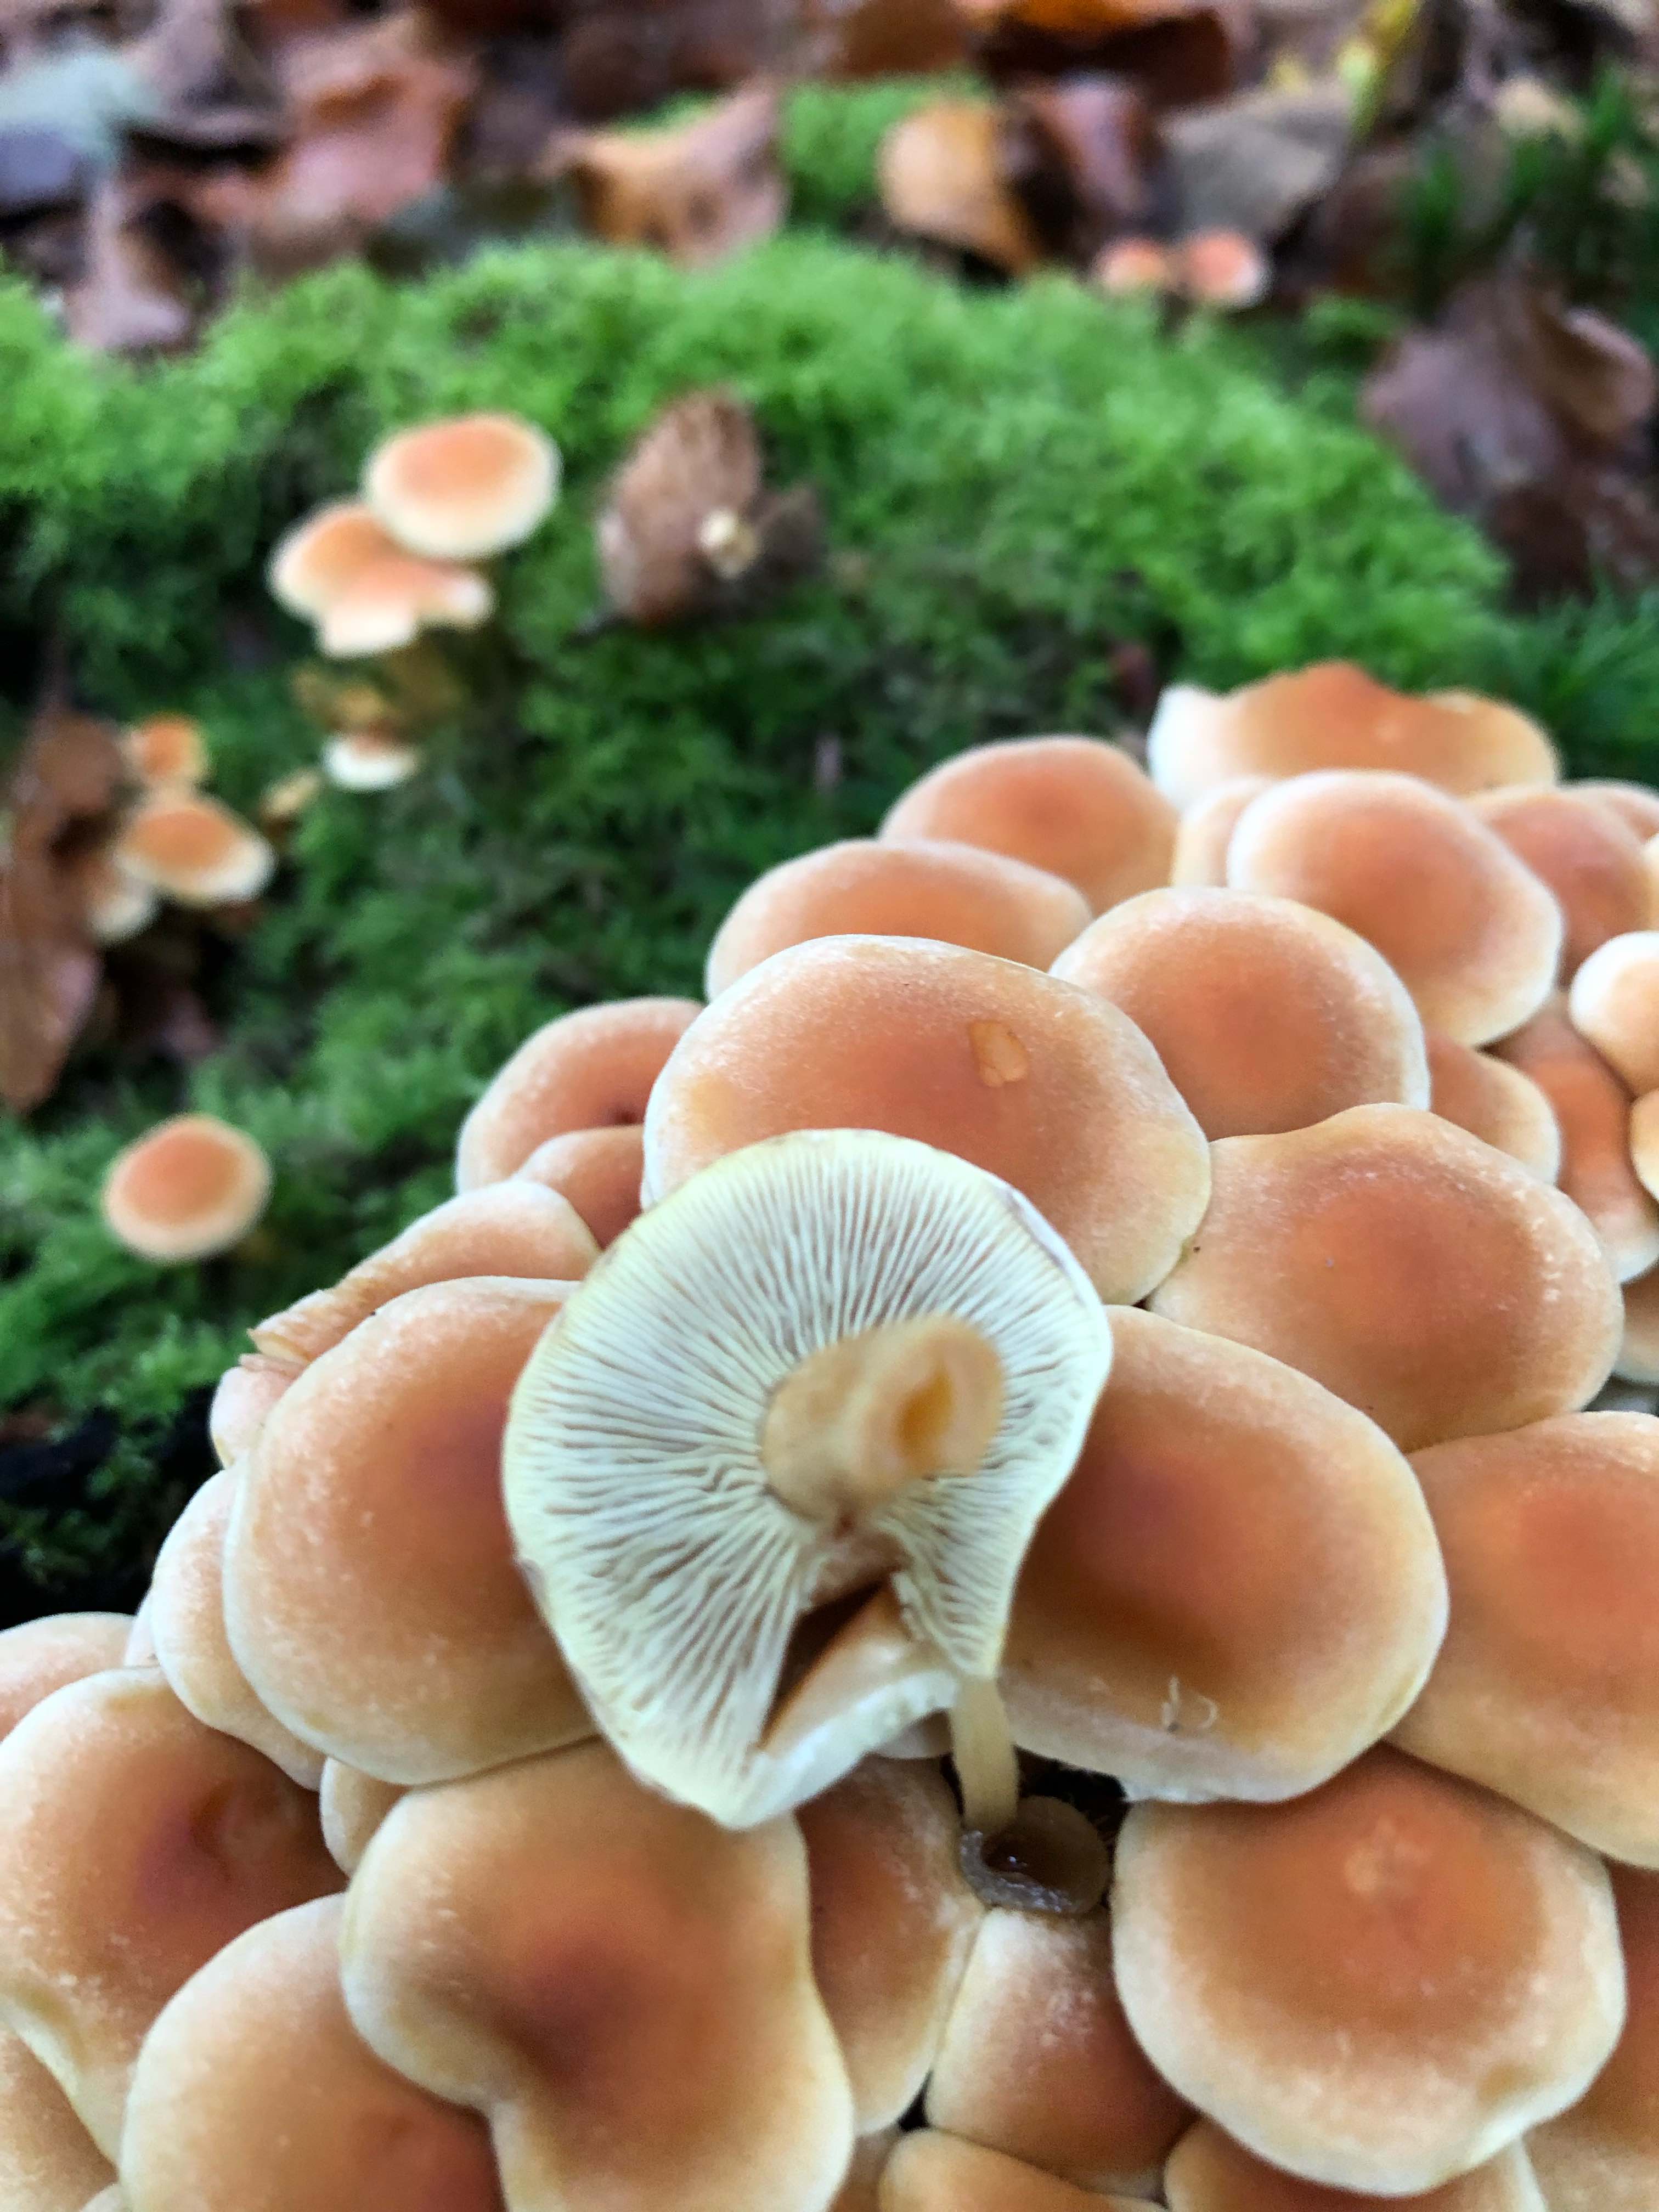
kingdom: Fungi
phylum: Basidiomycota
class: Agaricomycetes
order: Agaricales
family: Strophariaceae
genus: Hypholoma
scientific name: Hypholoma fasciculare
